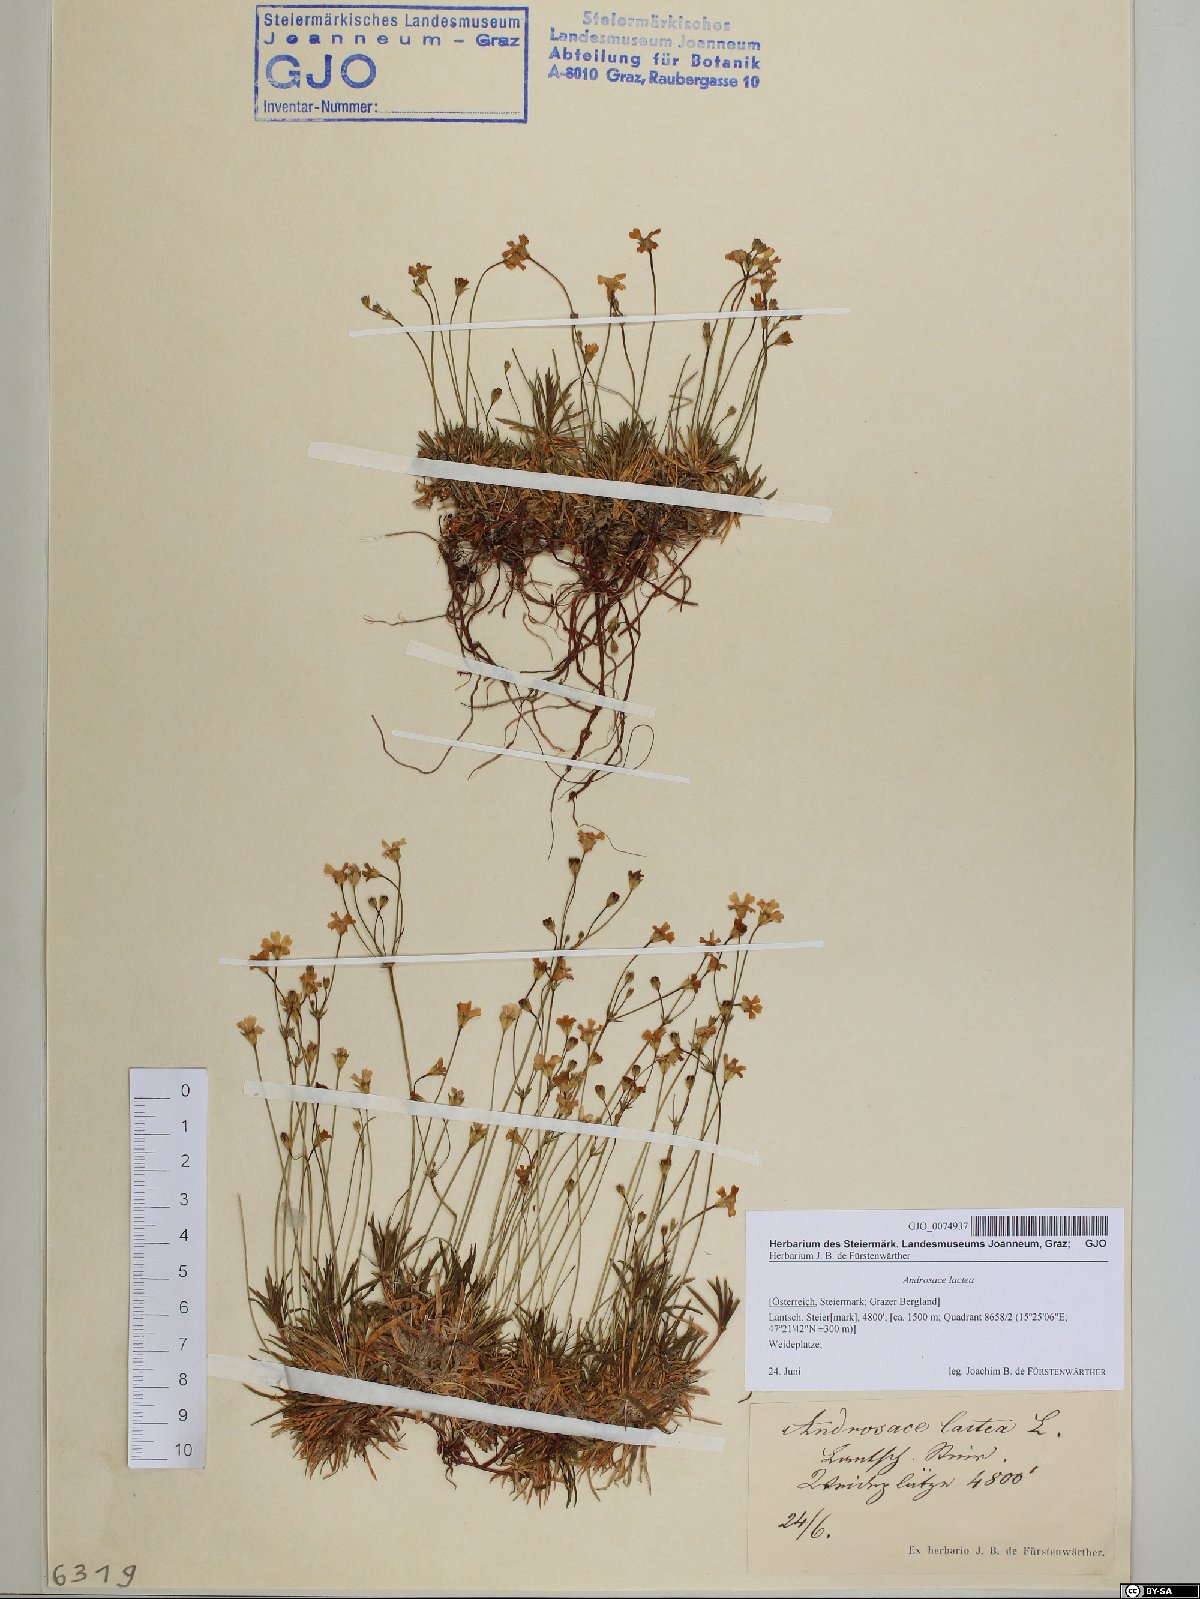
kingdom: Plantae
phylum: Tracheophyta
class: Magnoliopsida
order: Ericales
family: Primulaceae
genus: Androsace
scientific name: Androsace lactea
